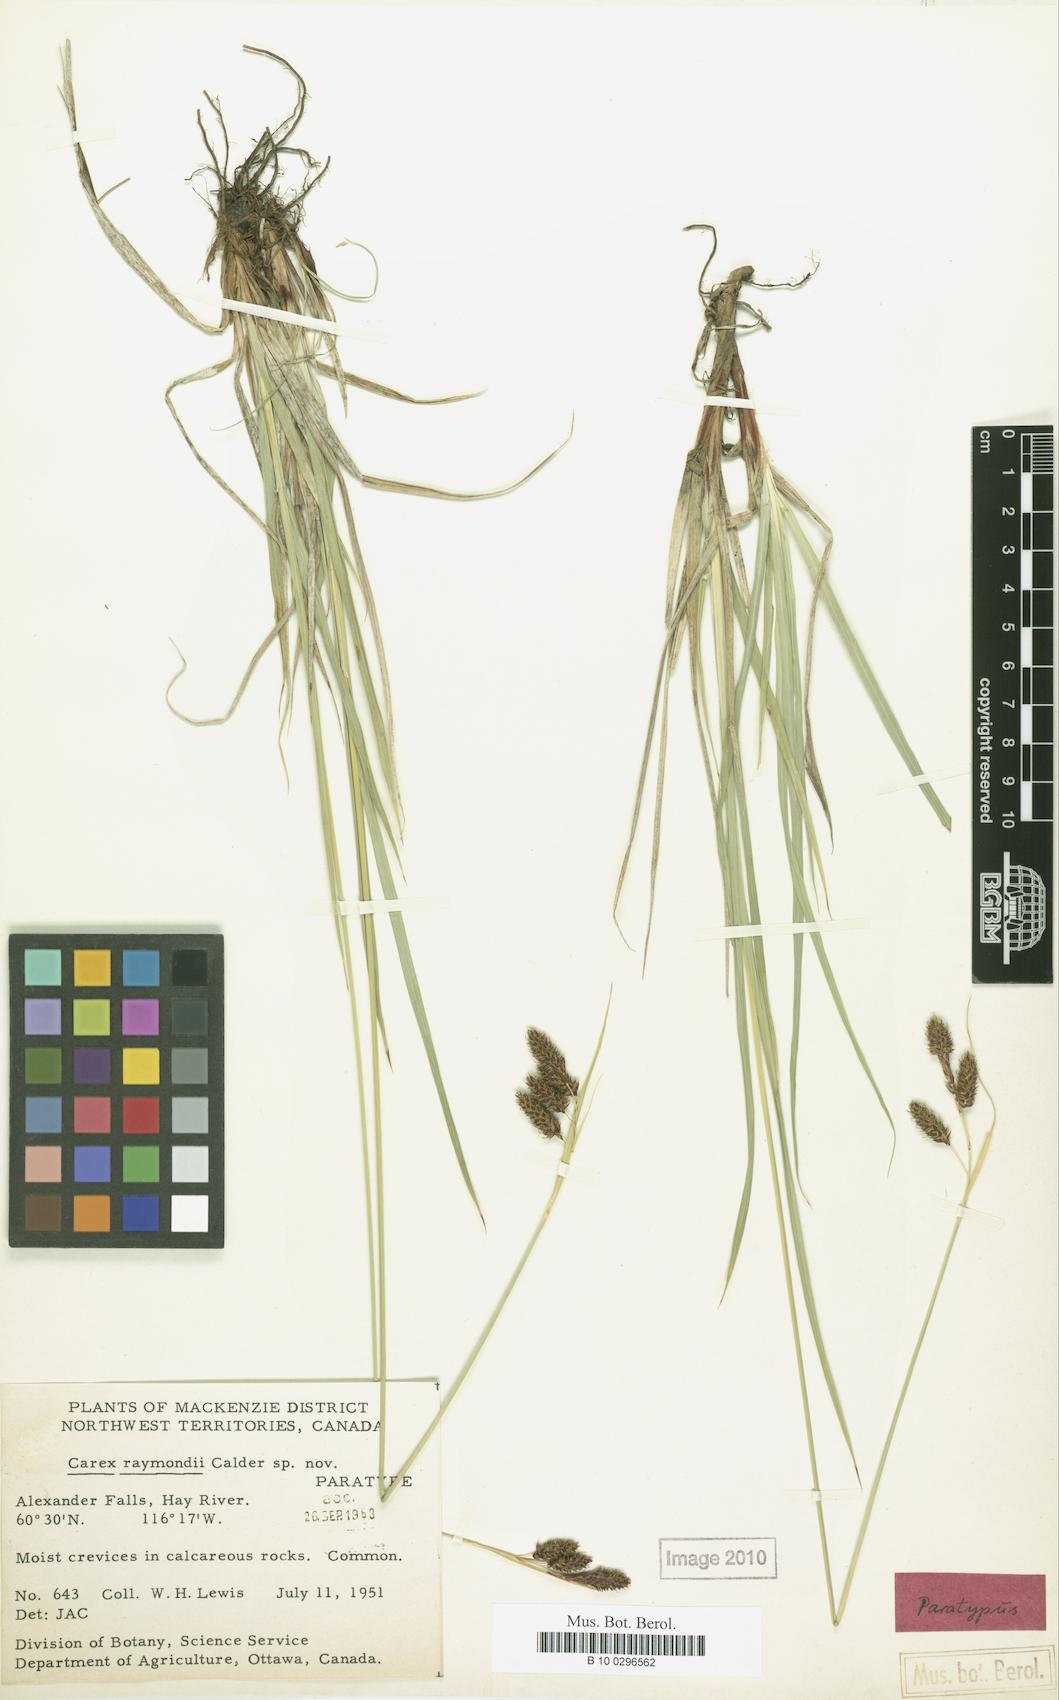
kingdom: Plantae
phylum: Tracheophyta
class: Liliopsida
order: Poales
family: Cyperaceae
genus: Carex
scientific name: Carex atratiformis
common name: Black sedge
